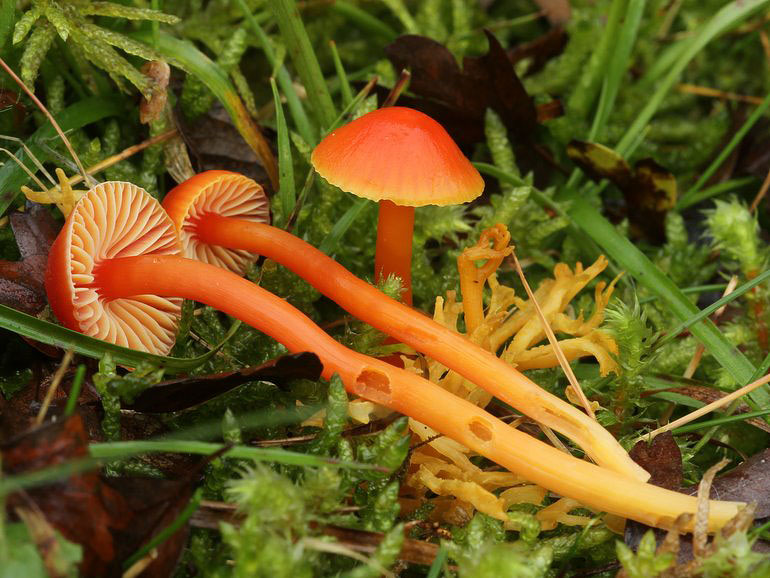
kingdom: Fungi
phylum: Basidiomycota
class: Agaricomycetes
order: Agaricales
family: Hygrophoraceae
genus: Hygrocybe
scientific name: Hygrocybe mucronella
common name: bitter vokshat
